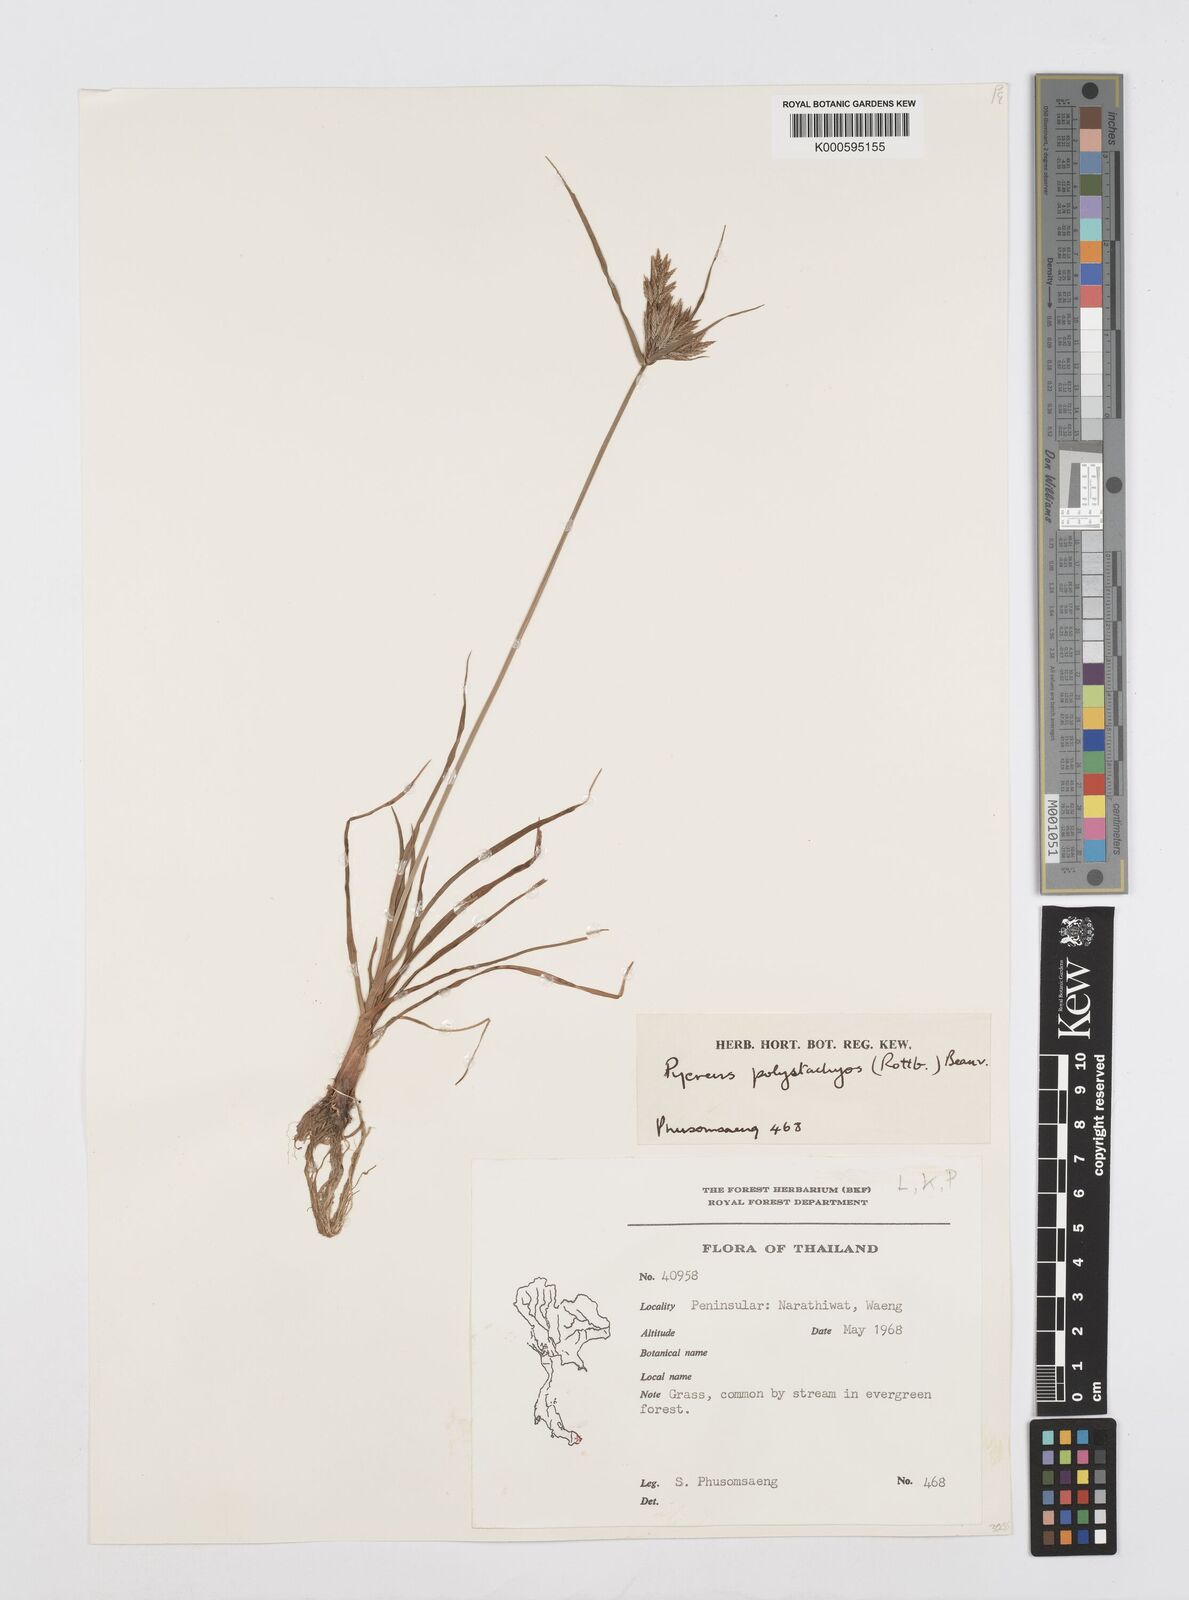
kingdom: Plantae
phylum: Tracheophyta
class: Liliopsida
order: Poales
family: Cyperaceae
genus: Cyperus
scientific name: Cyperus polystachyos
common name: Bunchy flat sedge
